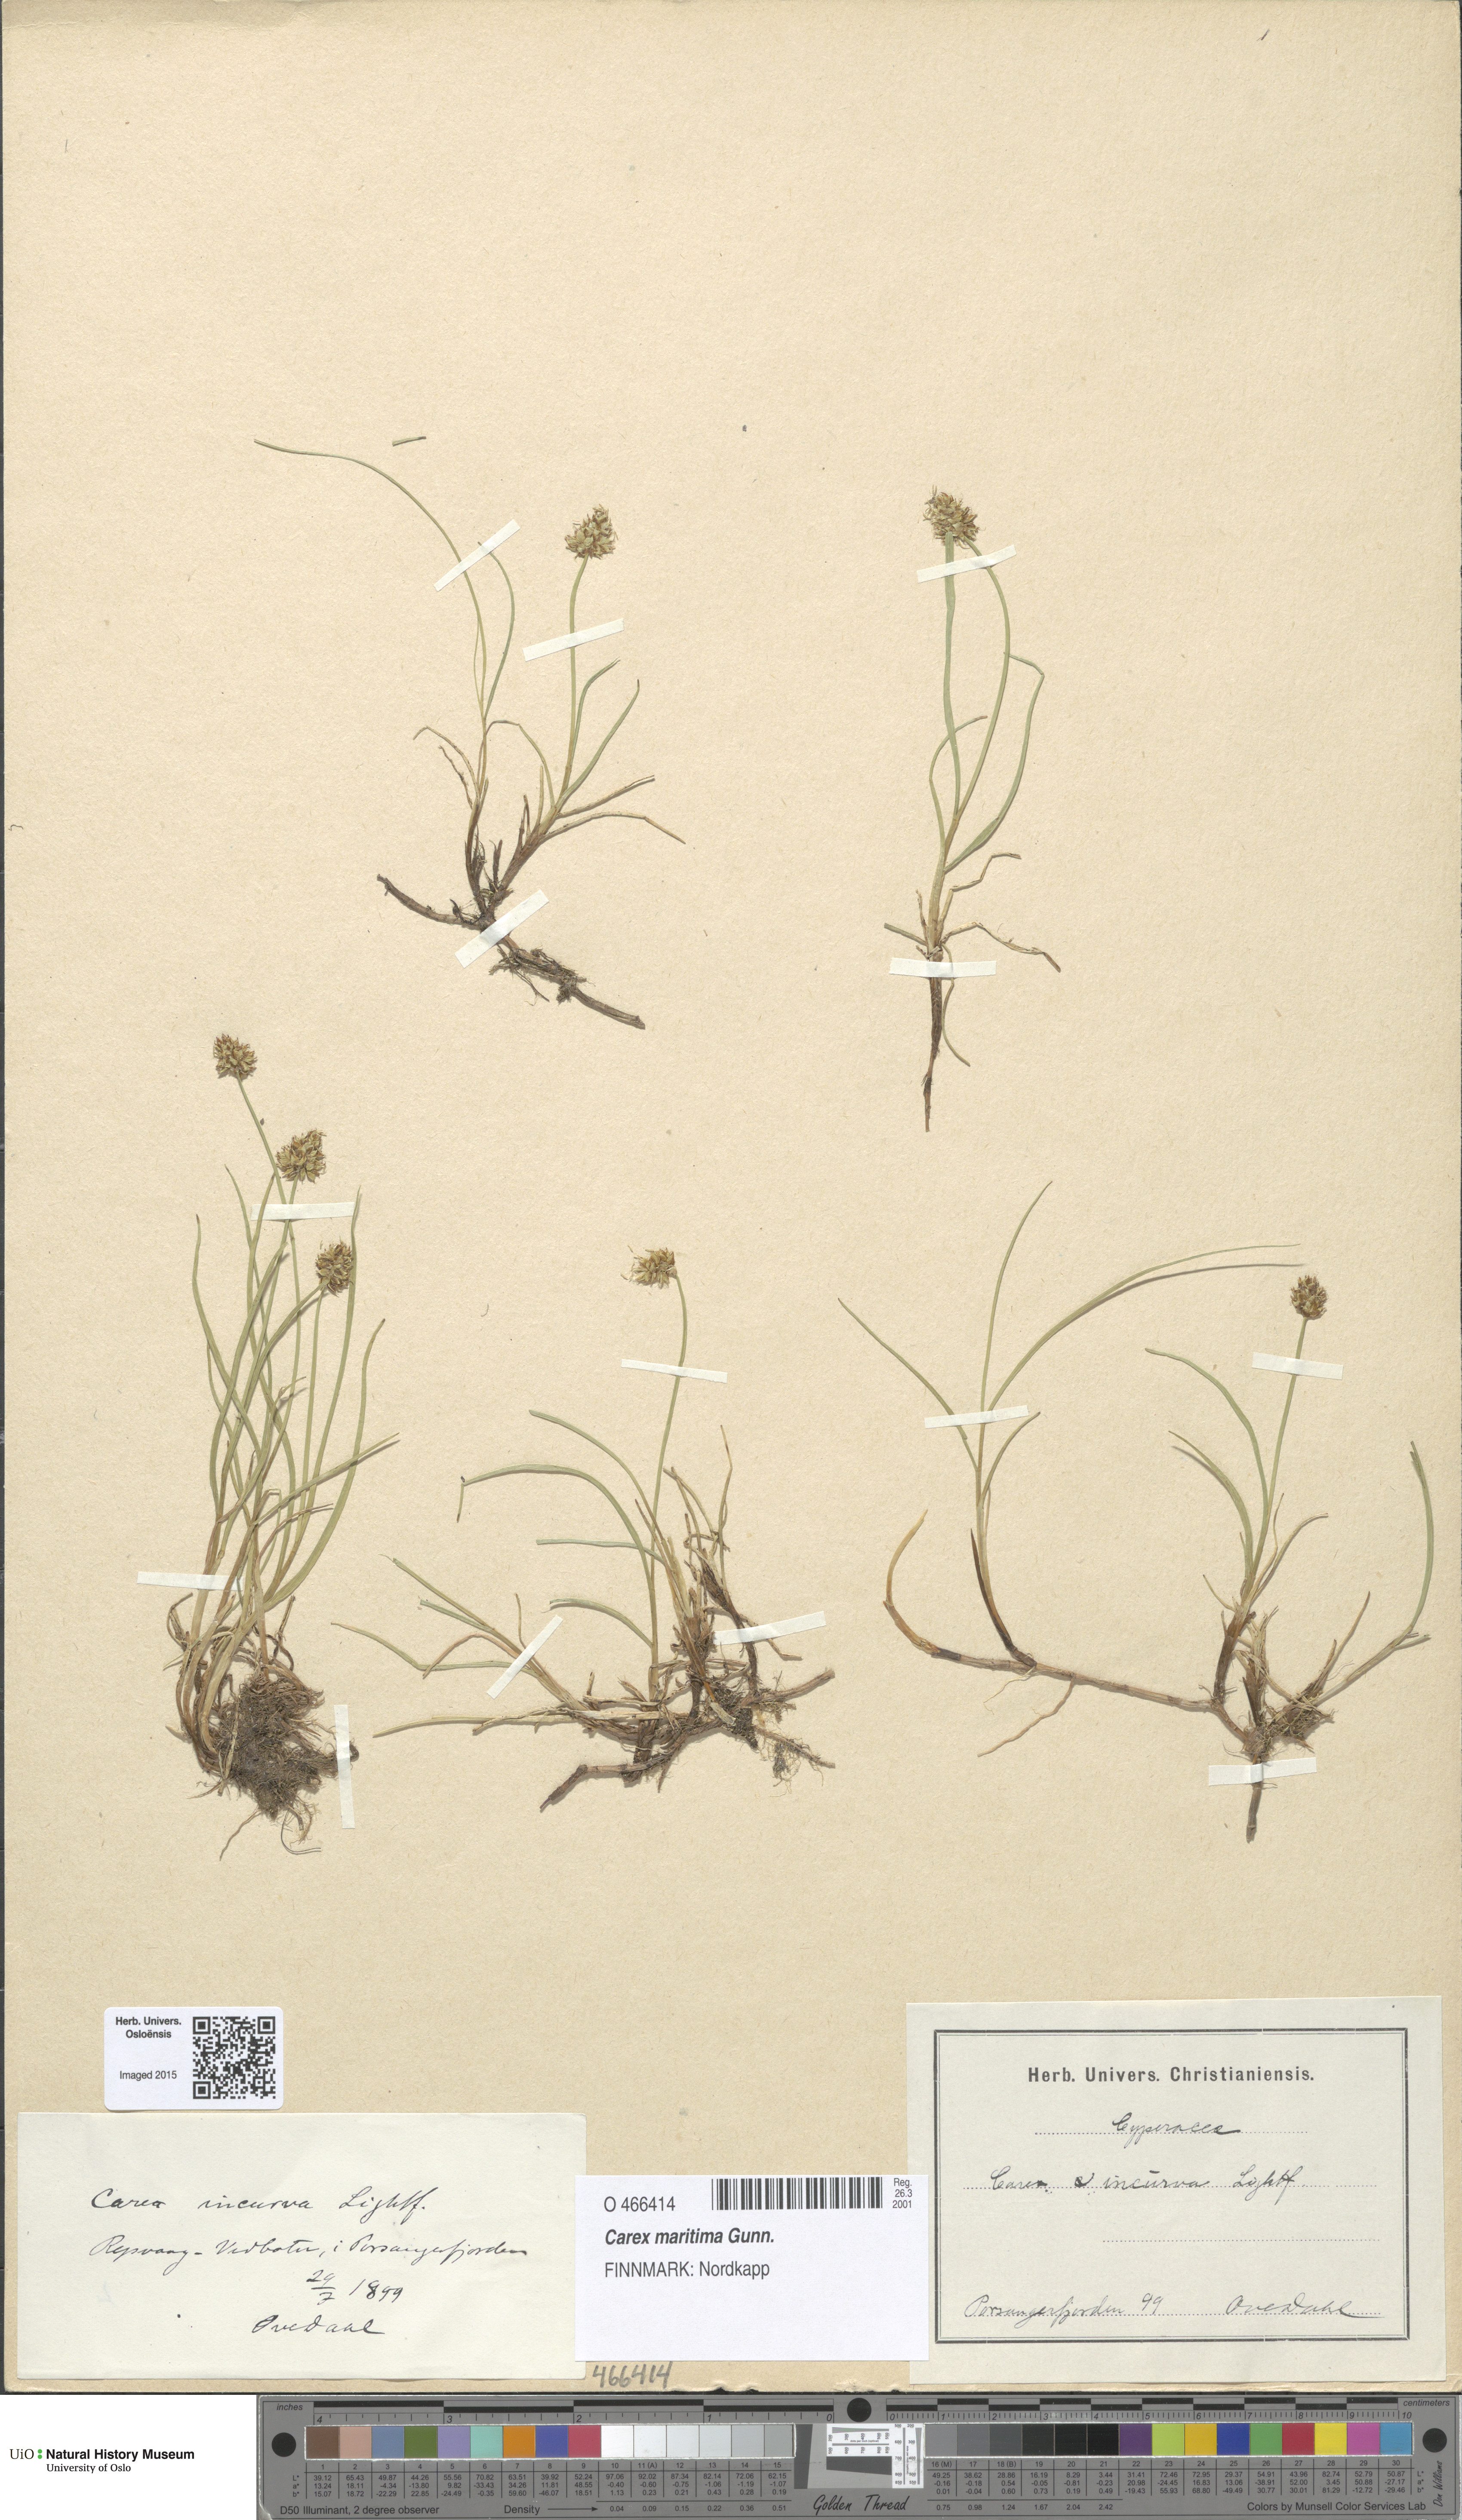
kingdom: Plantae
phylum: Tracheophyta
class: Liliopsida
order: Poales
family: Cyperaceae
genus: Carex
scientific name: Carex maritima
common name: Curved sedge
